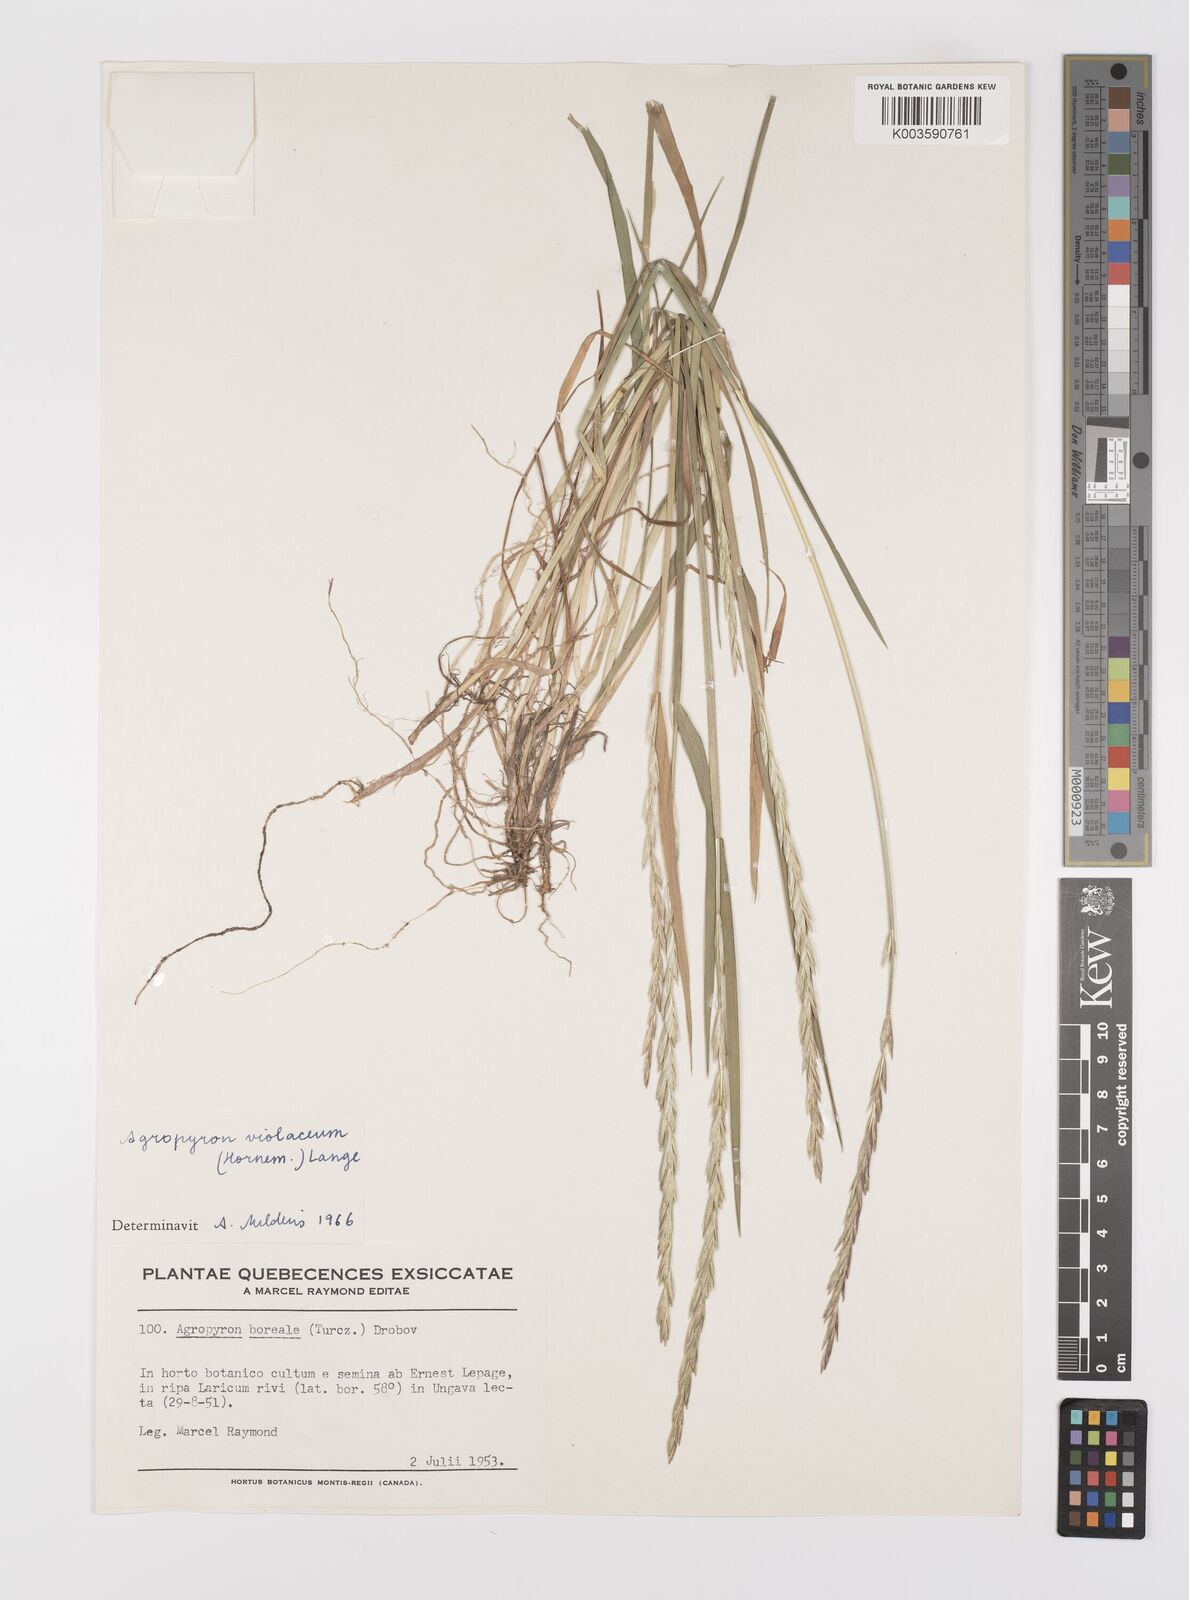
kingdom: Plantae
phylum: Tracheophyta
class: Liliopsida
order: Poales
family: Poaceae
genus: Elymus
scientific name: Elymus violaceus
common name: Arctic wheatgrass
